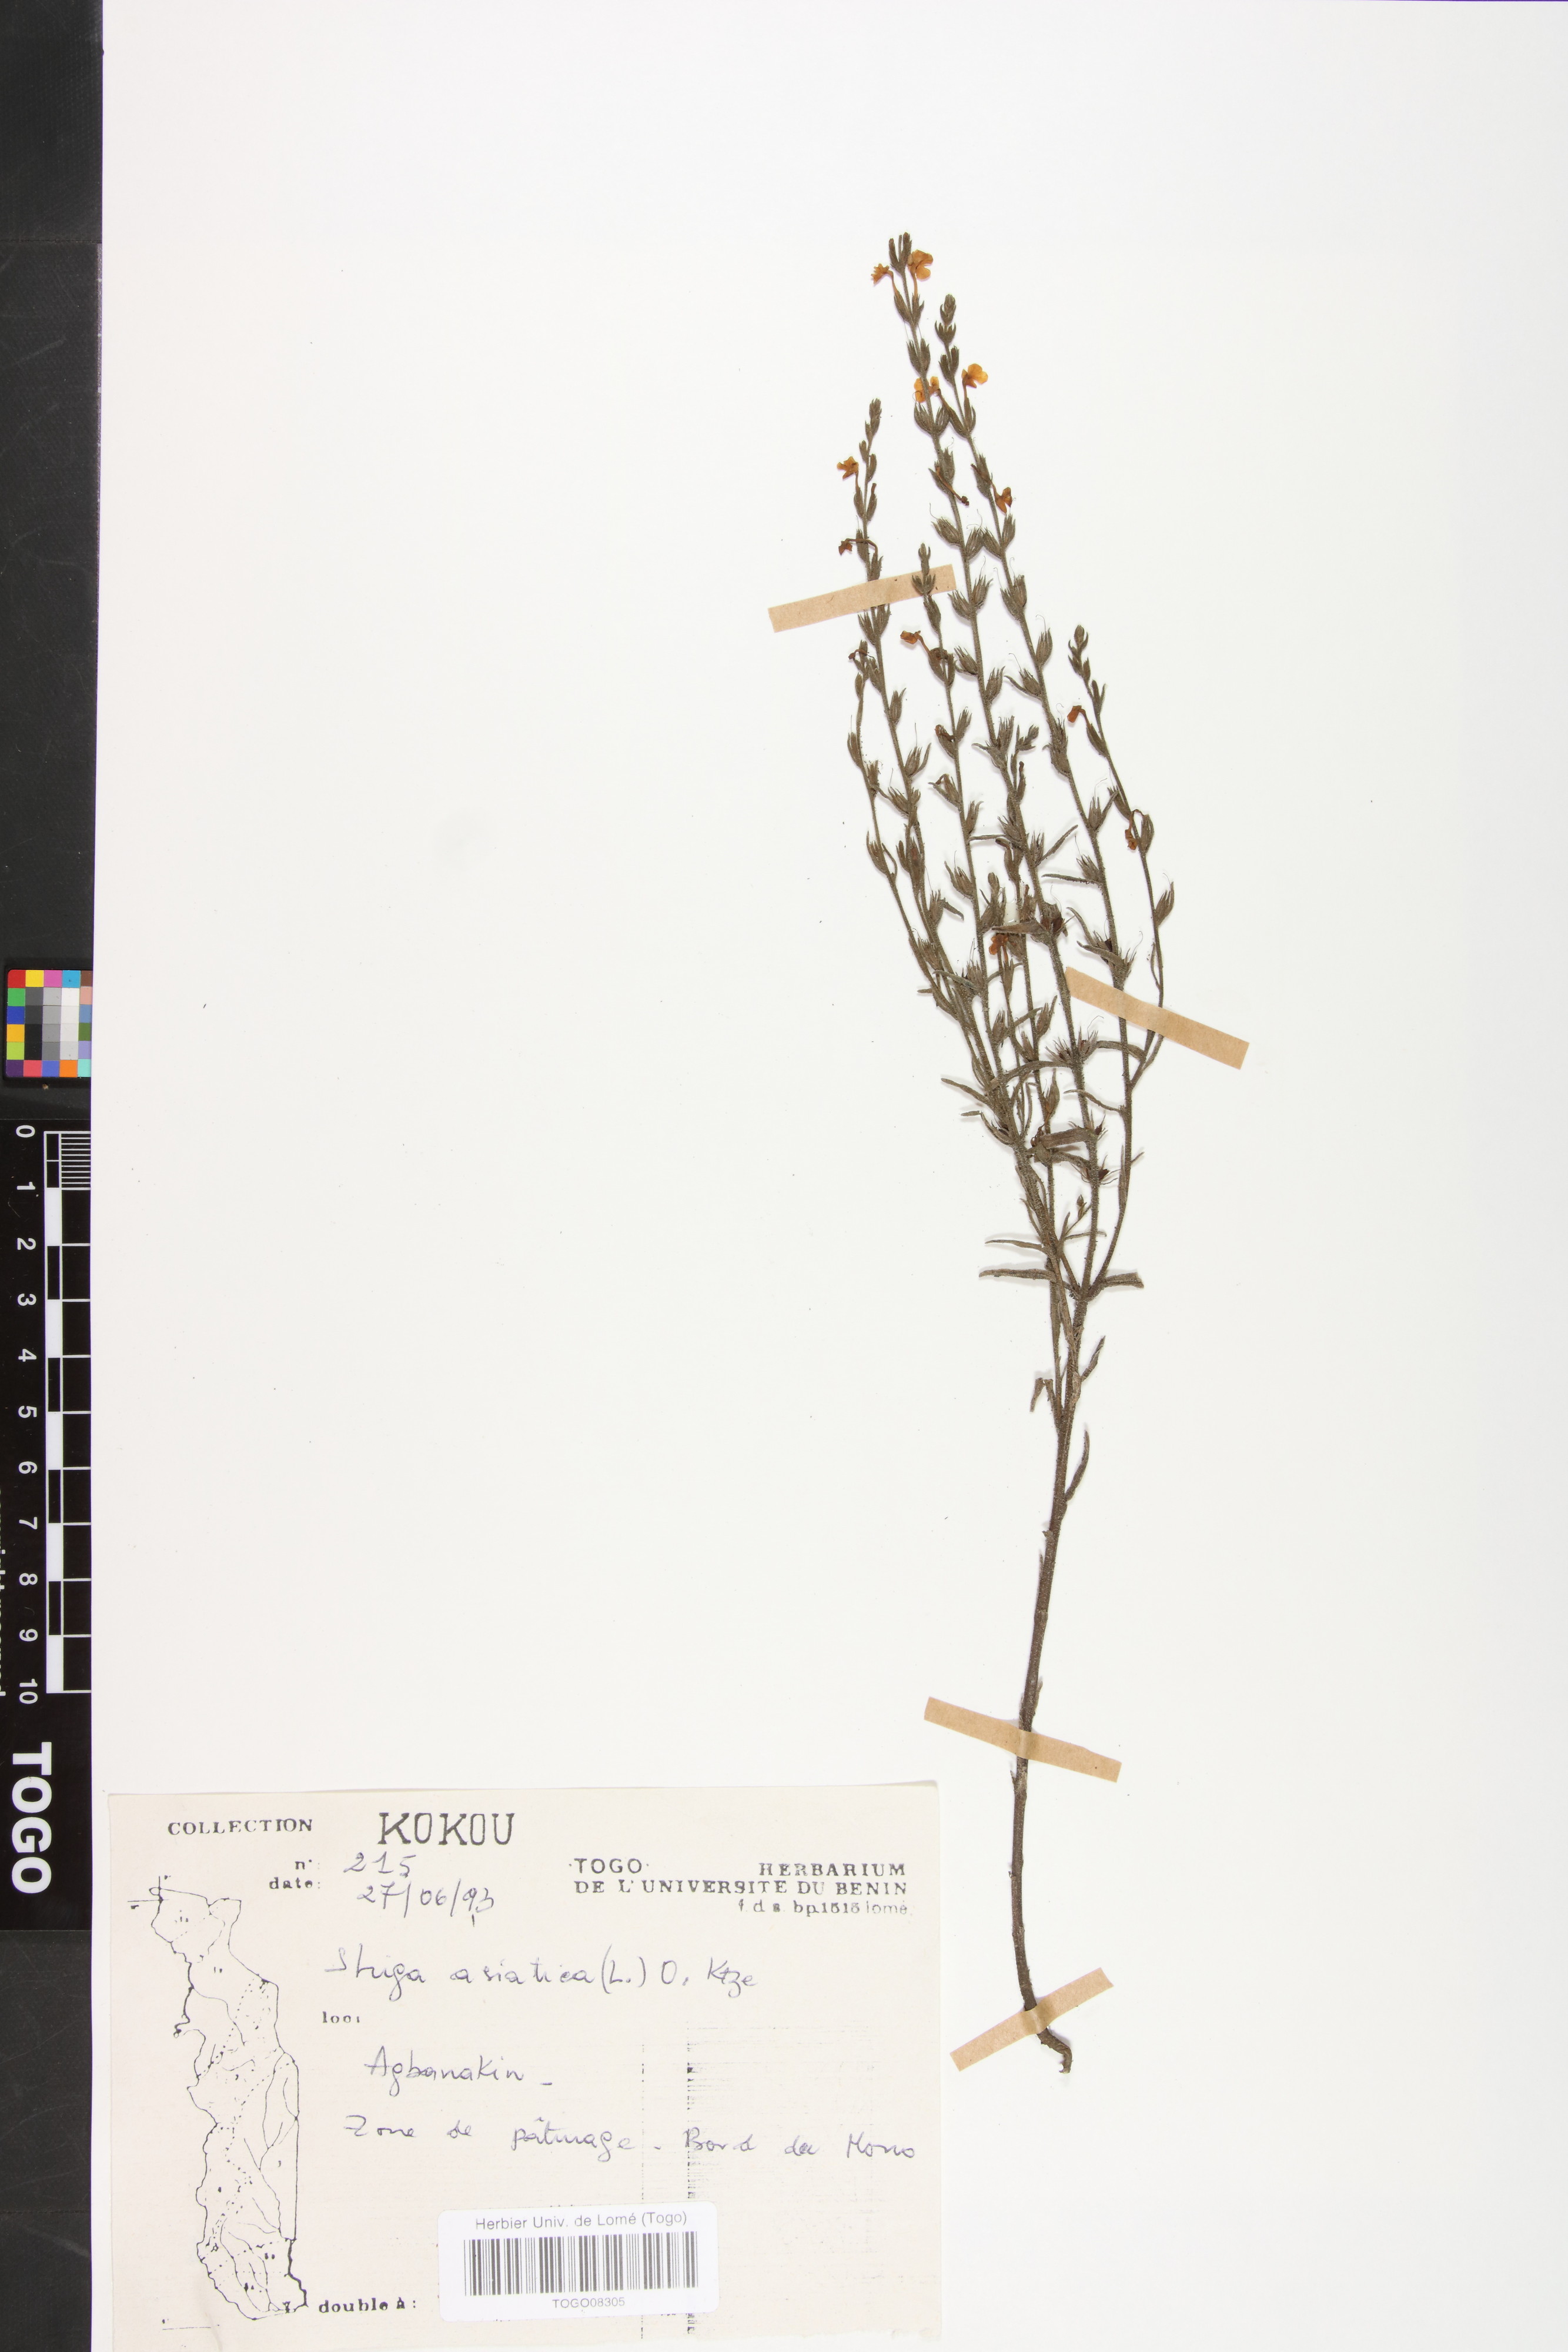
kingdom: Plantae
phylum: Tracheophyta
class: Magnoliopsida
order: Lamiales
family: Orobanchaceae
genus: Striga
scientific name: Striga asiatica
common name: Asiatic witchweed
